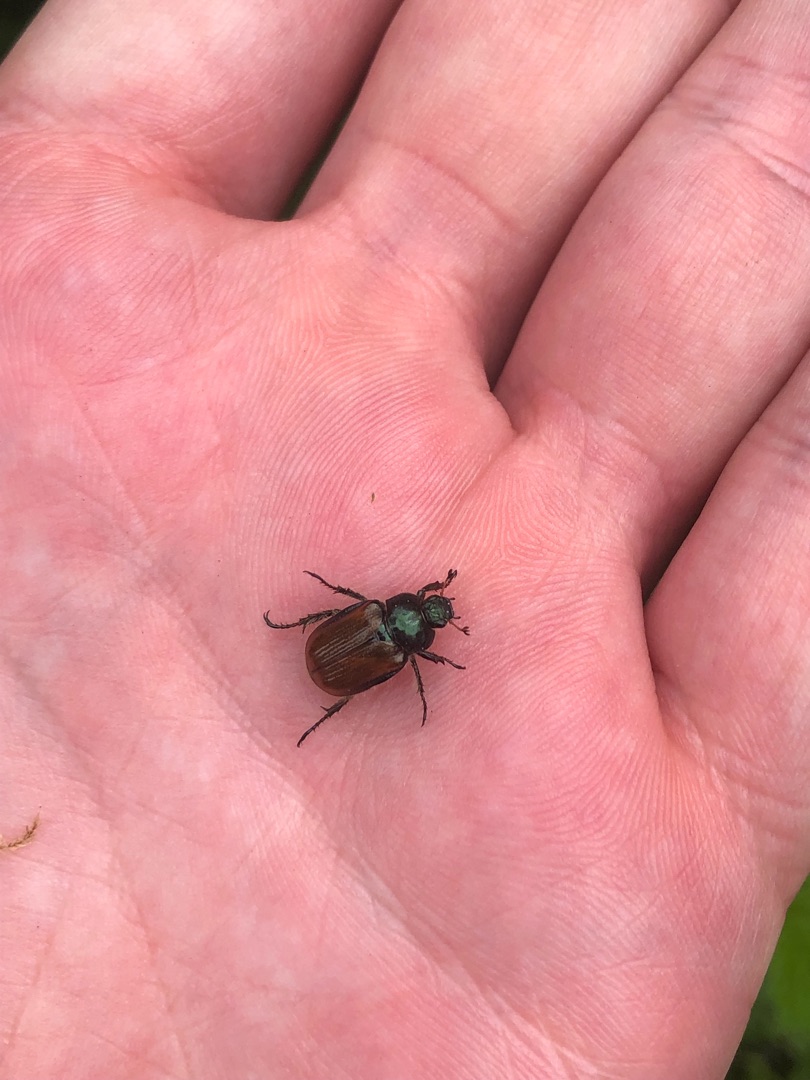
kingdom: Animalia
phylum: Arthropoda
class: Insecta
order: Coleoptera
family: Scarabaeidae
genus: Phyllopertha
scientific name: Phyllopertha horticola
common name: Gåsebille
